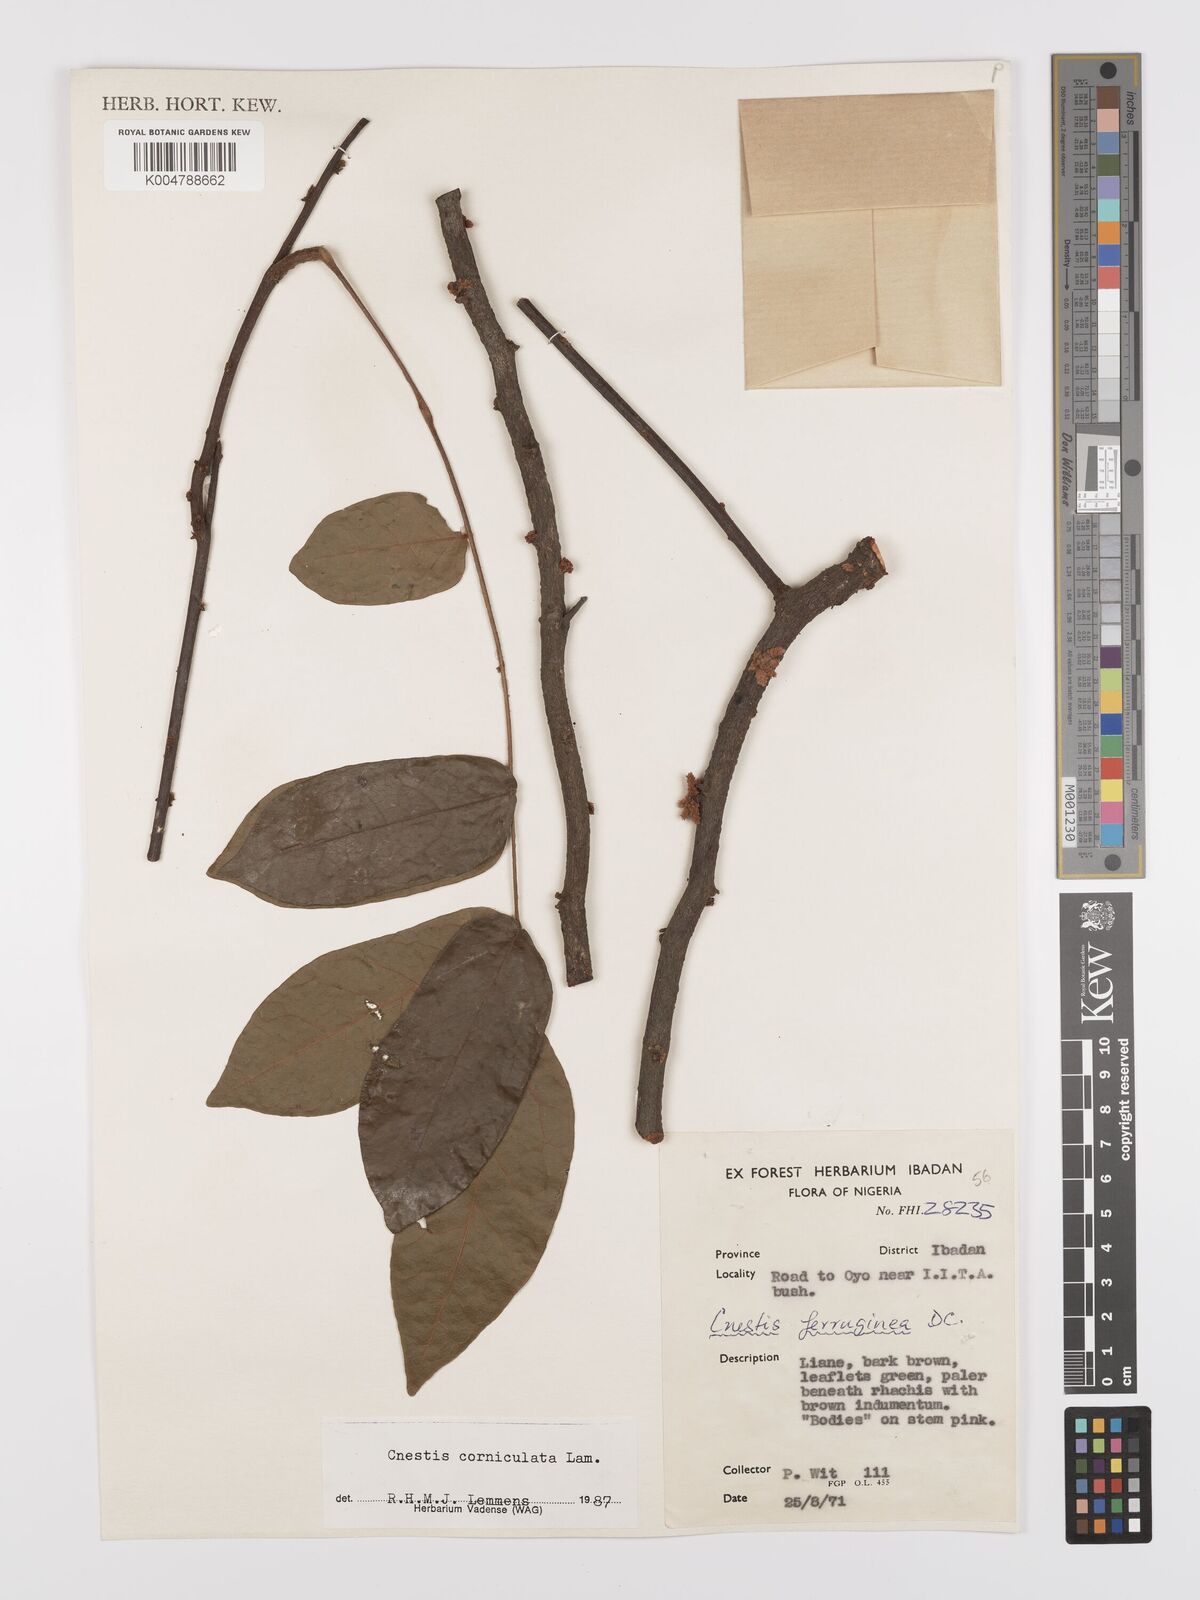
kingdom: Plantae
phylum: Tracheophyta
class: Magnoliopsida
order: Oxalidales
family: Connaraceae
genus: Cnestis
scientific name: Cnestis corniculata
